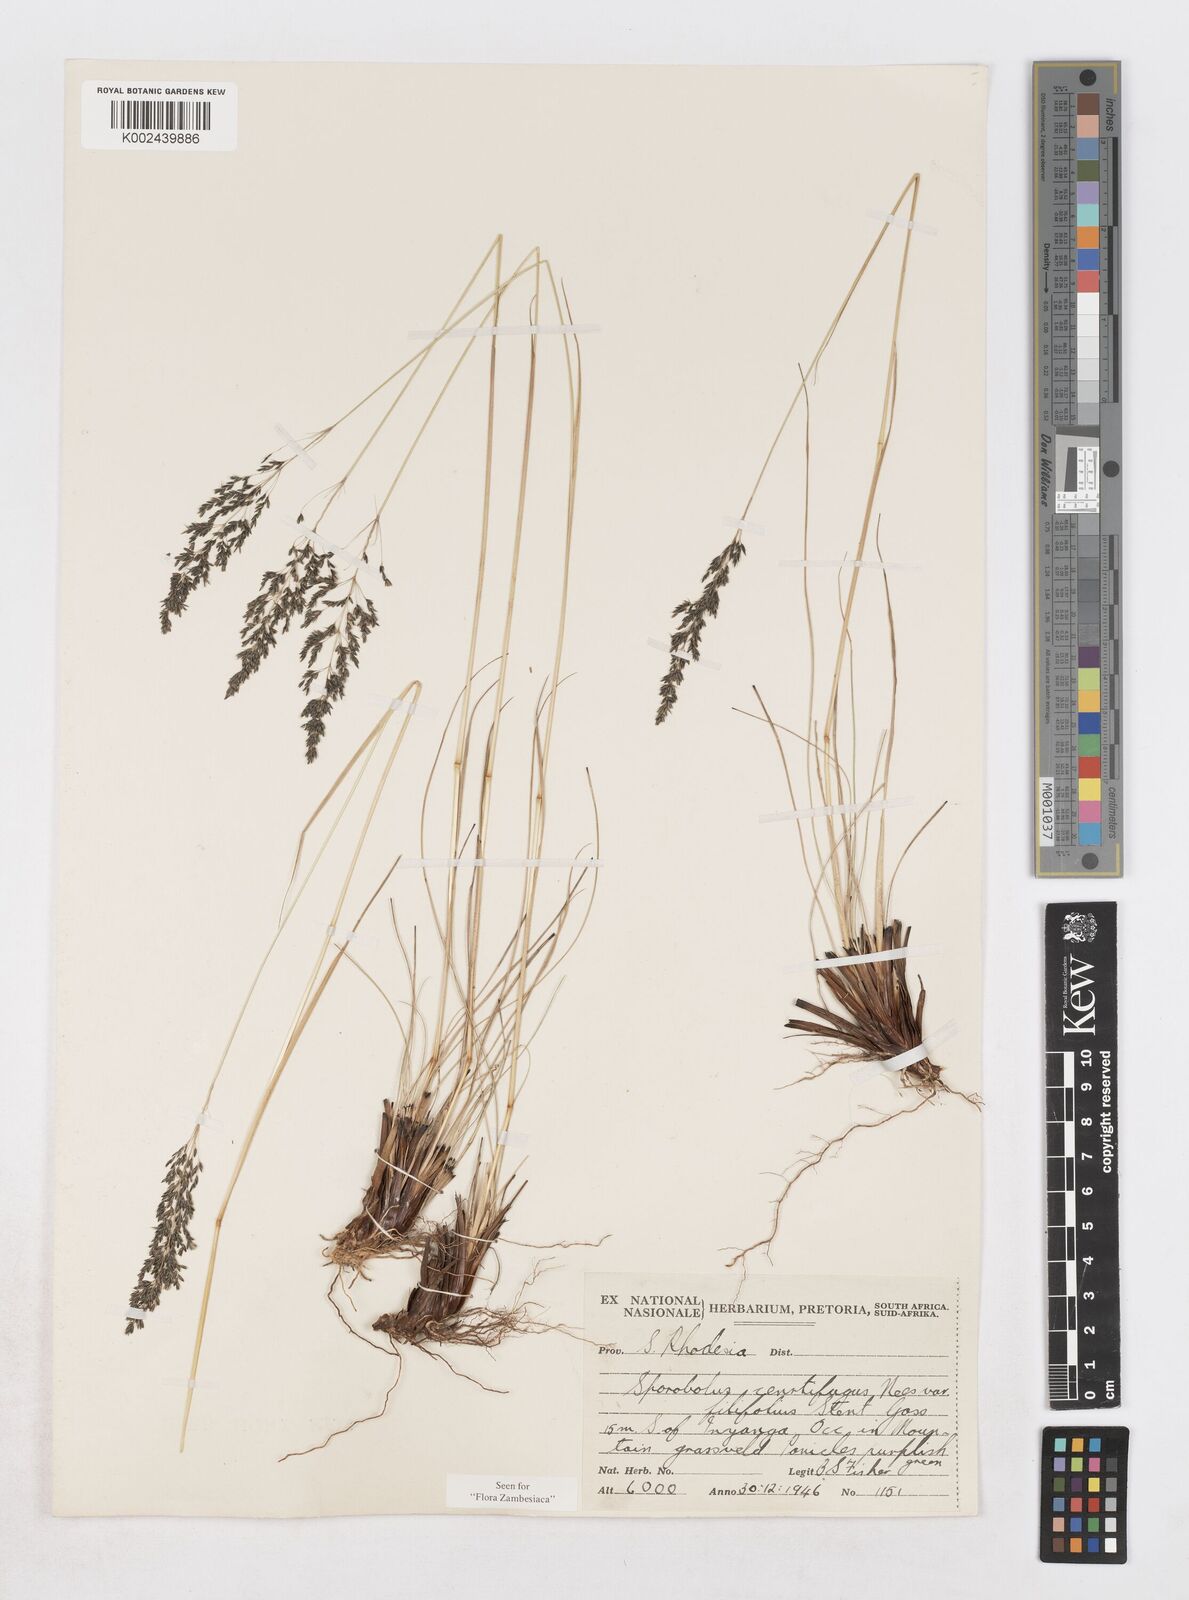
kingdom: Plantae
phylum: Tracheophyta
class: Liliopsida
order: Poales
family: Poaceae
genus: Sporobolus
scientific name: Sporobolus centrifugus
